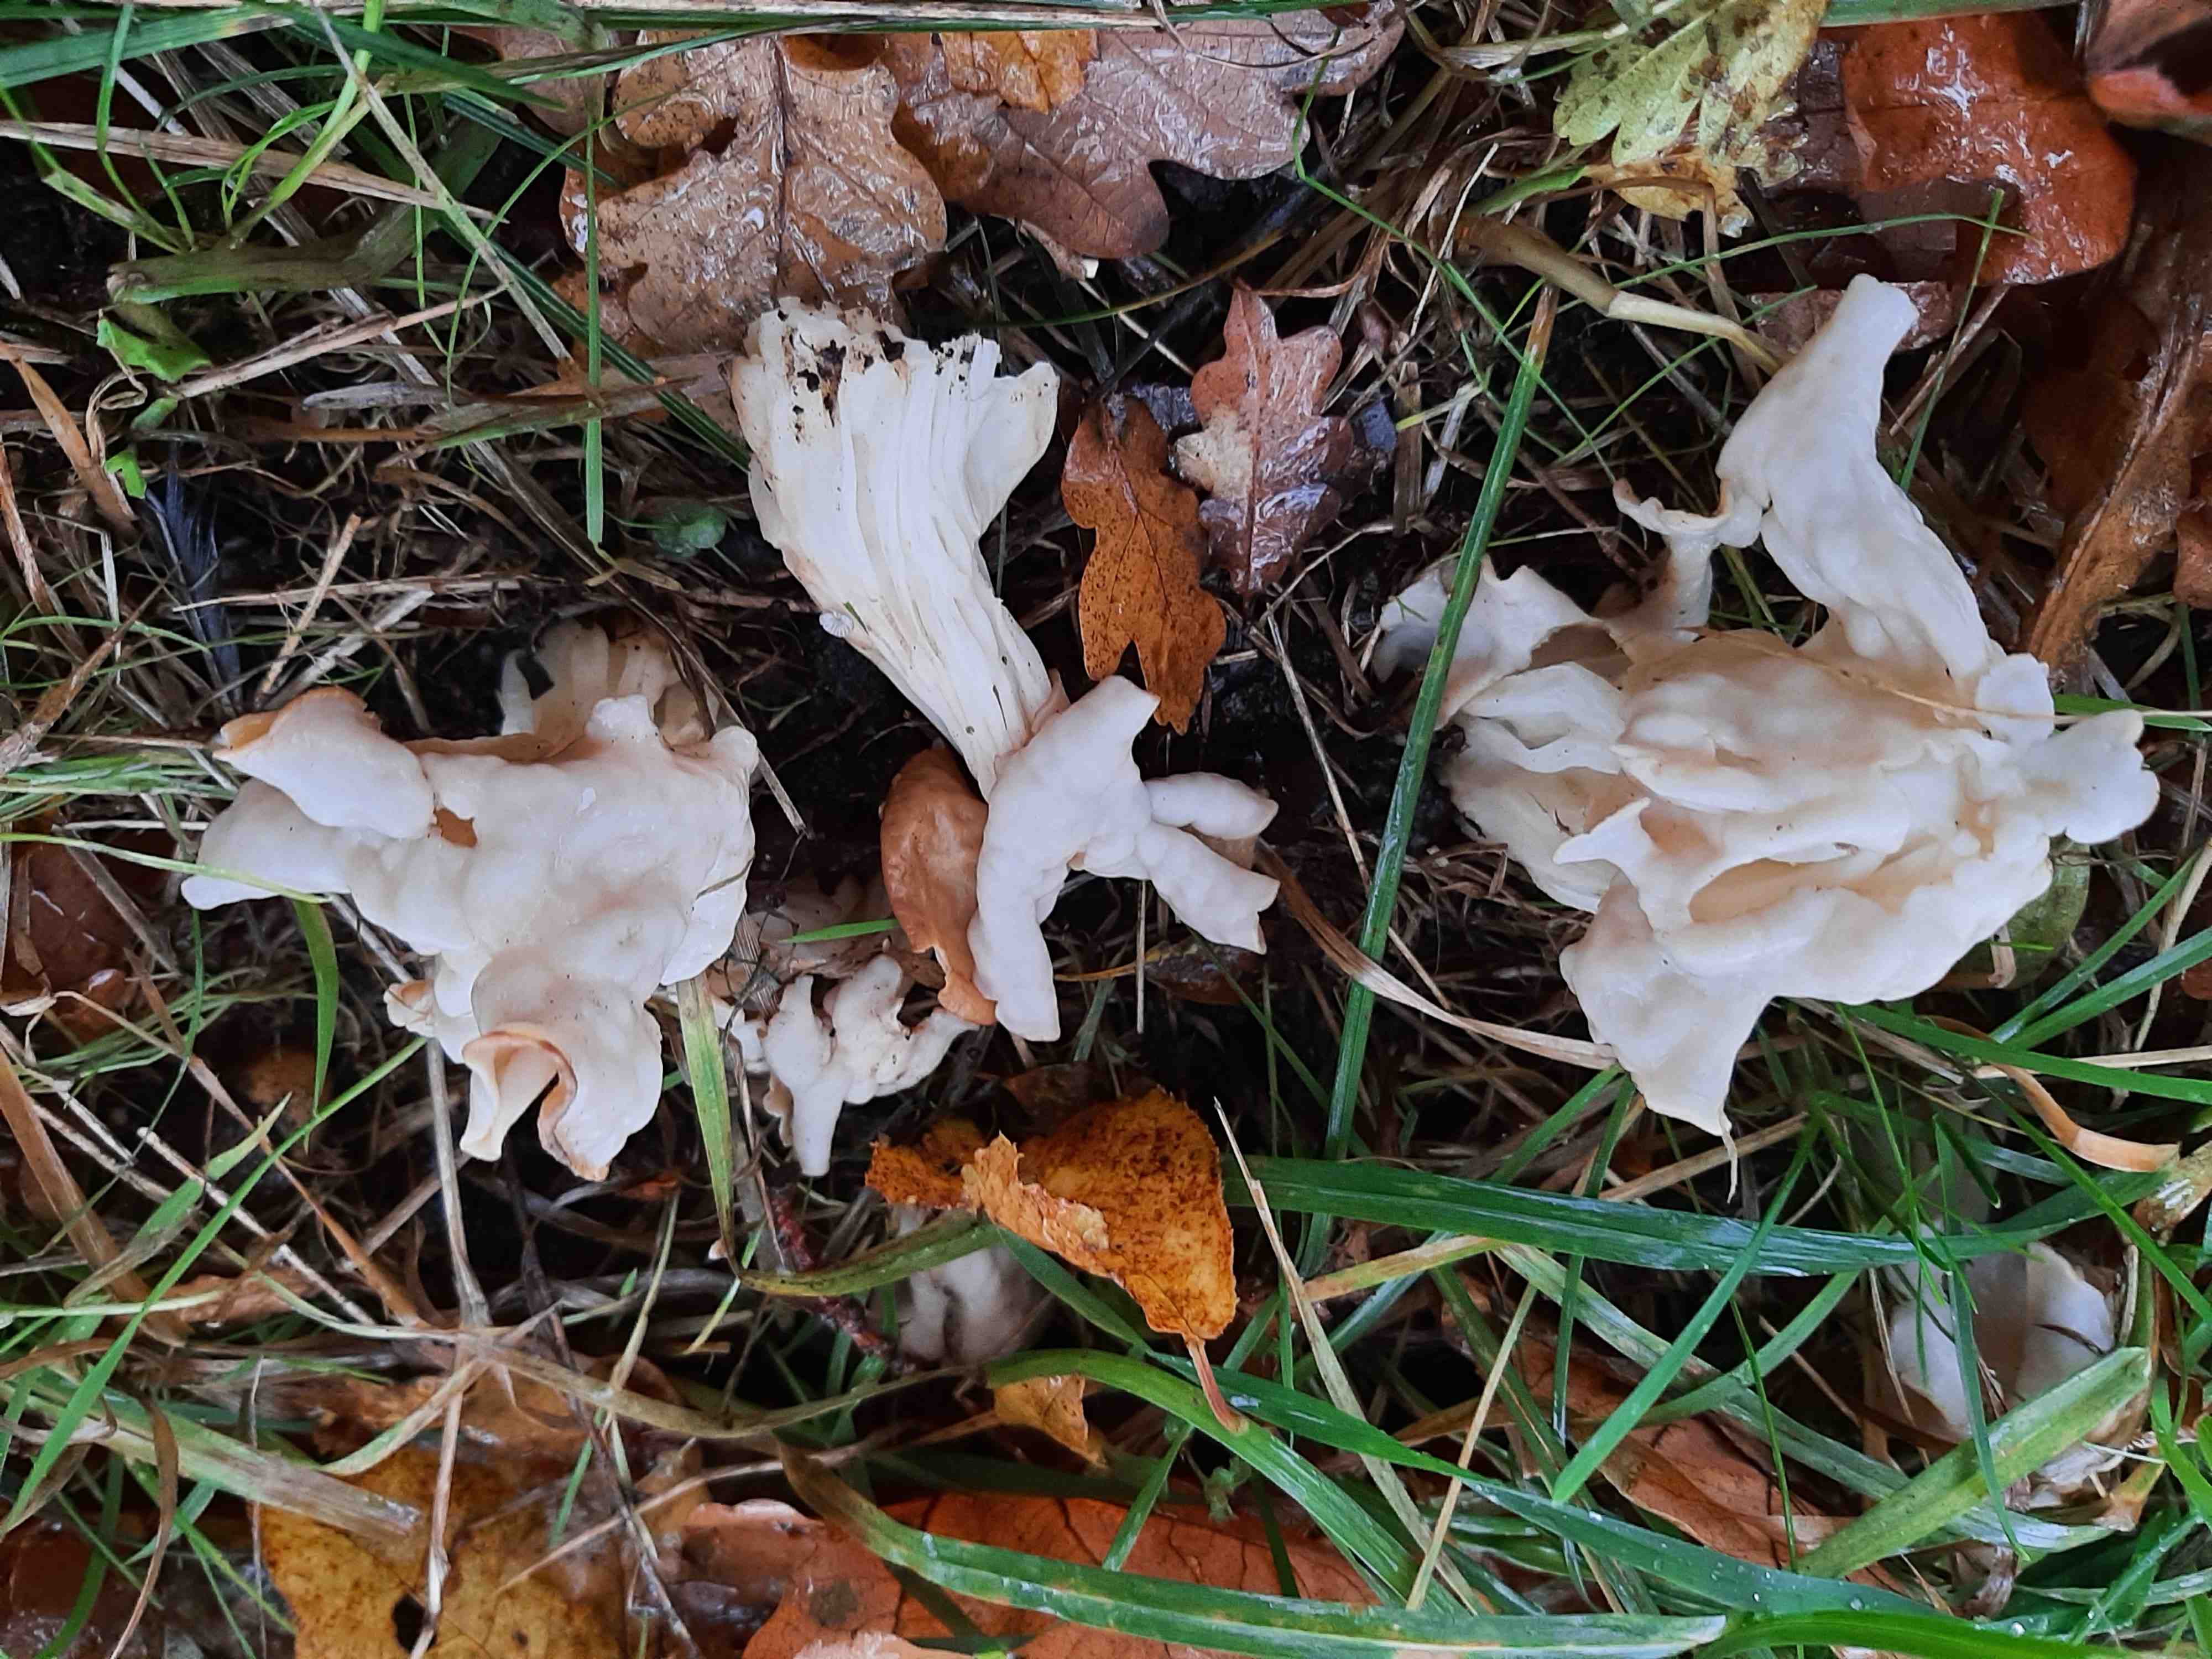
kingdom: Fungi
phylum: Ascomycota
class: Pezizomycetes
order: Pezizales
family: Helvellaceae
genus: Helvella
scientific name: Helvella crispa
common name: kruset foldhat
